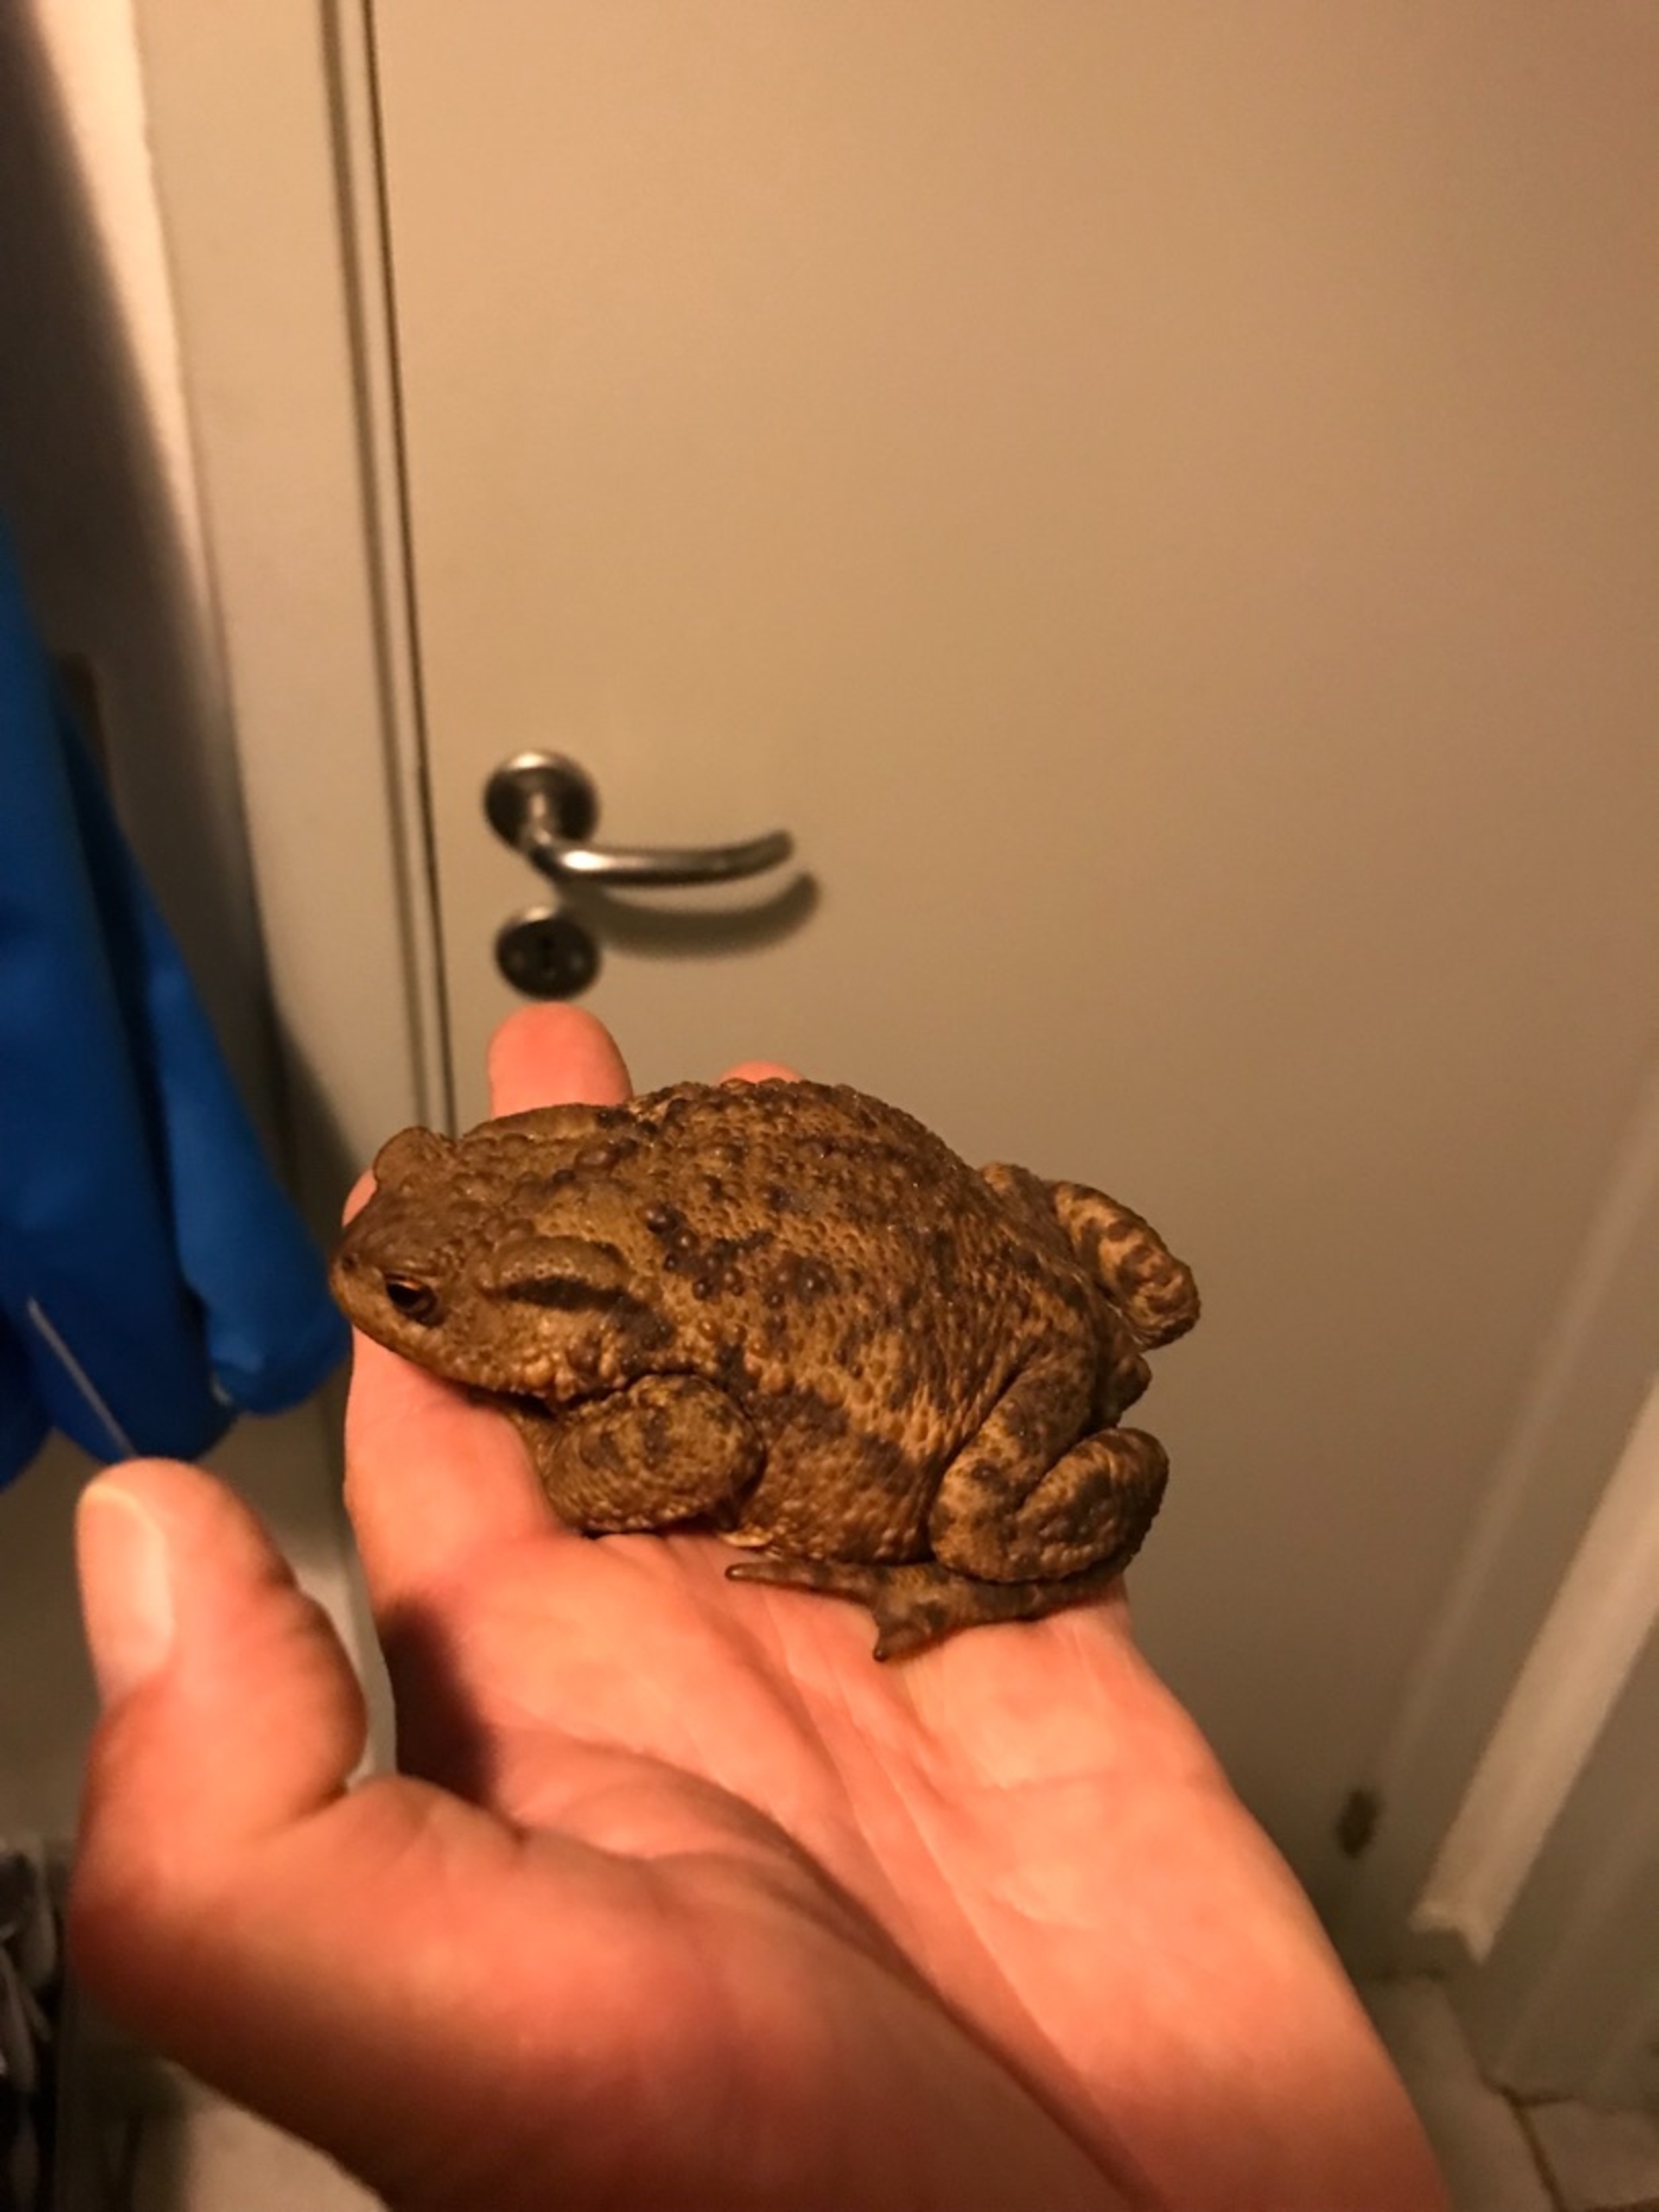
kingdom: Animalia
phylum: Chordata
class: Amphibia
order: Anura
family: Bufonidae
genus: Bufo
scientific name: Bufo bufo
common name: Skrubtudse
